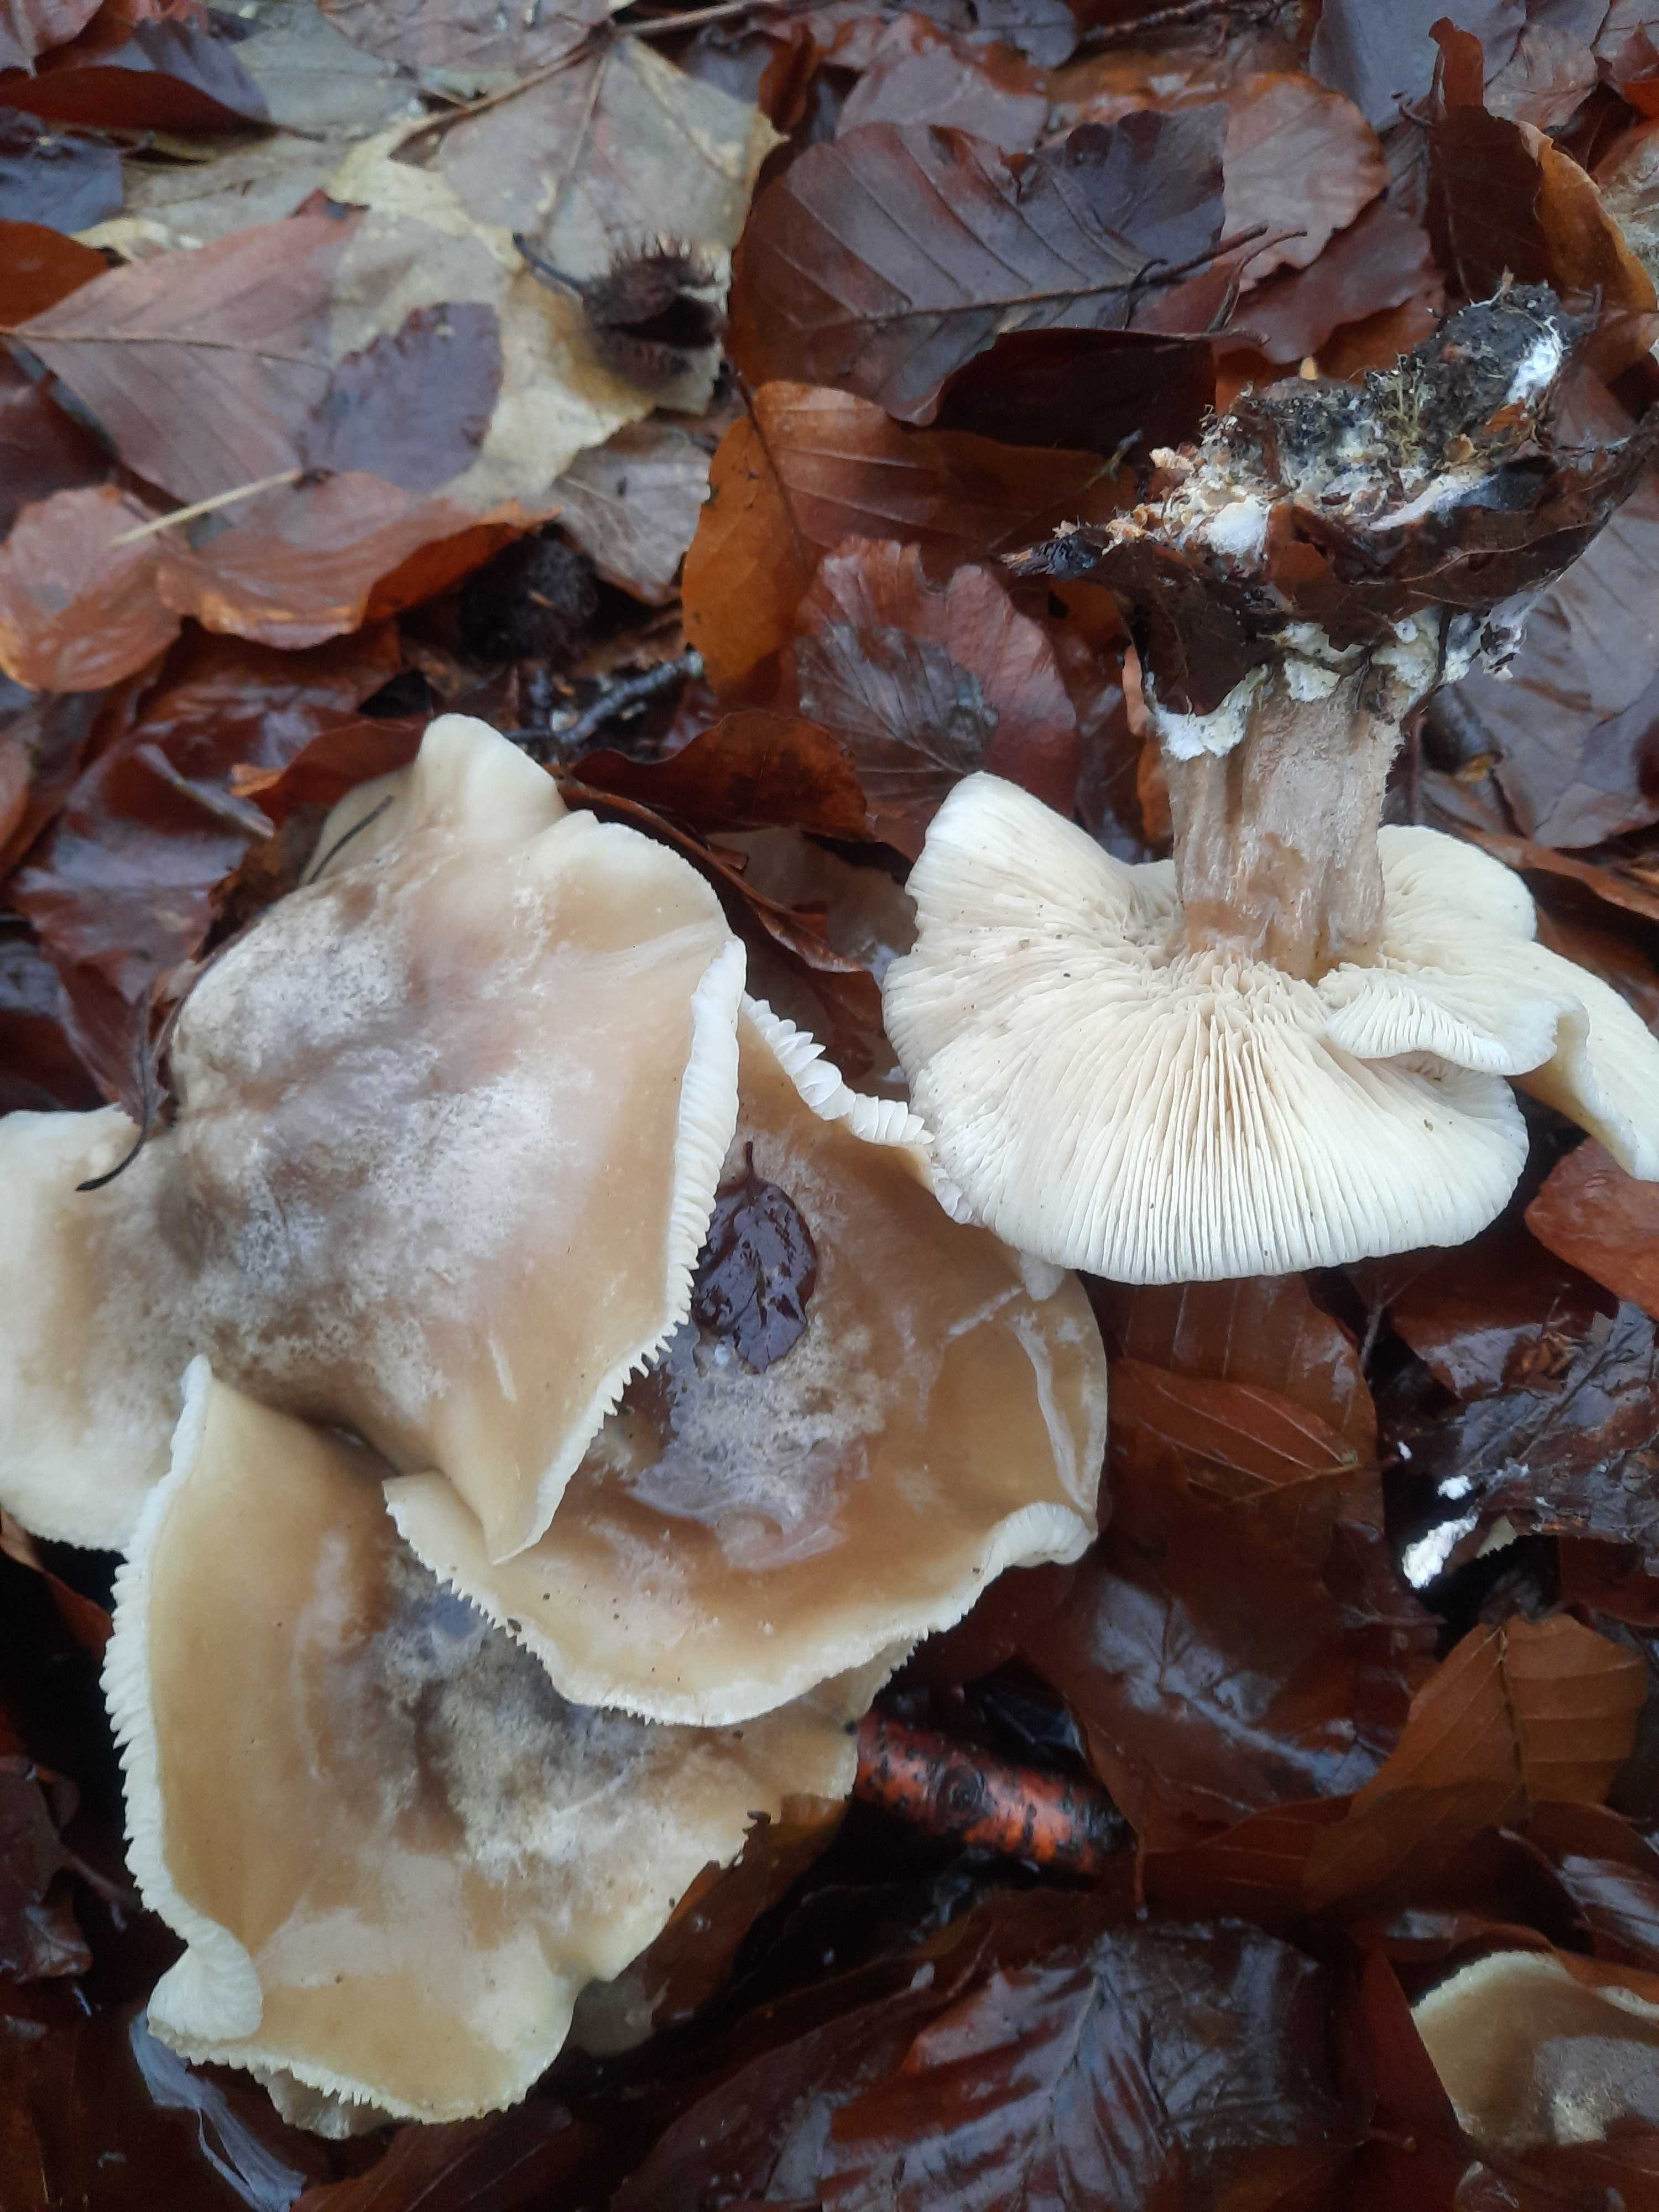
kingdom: Fungi
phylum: Basidiomycota
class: Agaricomycetes
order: Agaricales
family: Tricholomataceae
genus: Clitocybe
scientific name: Clitocybe nebularis
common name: tåge-tragthat
